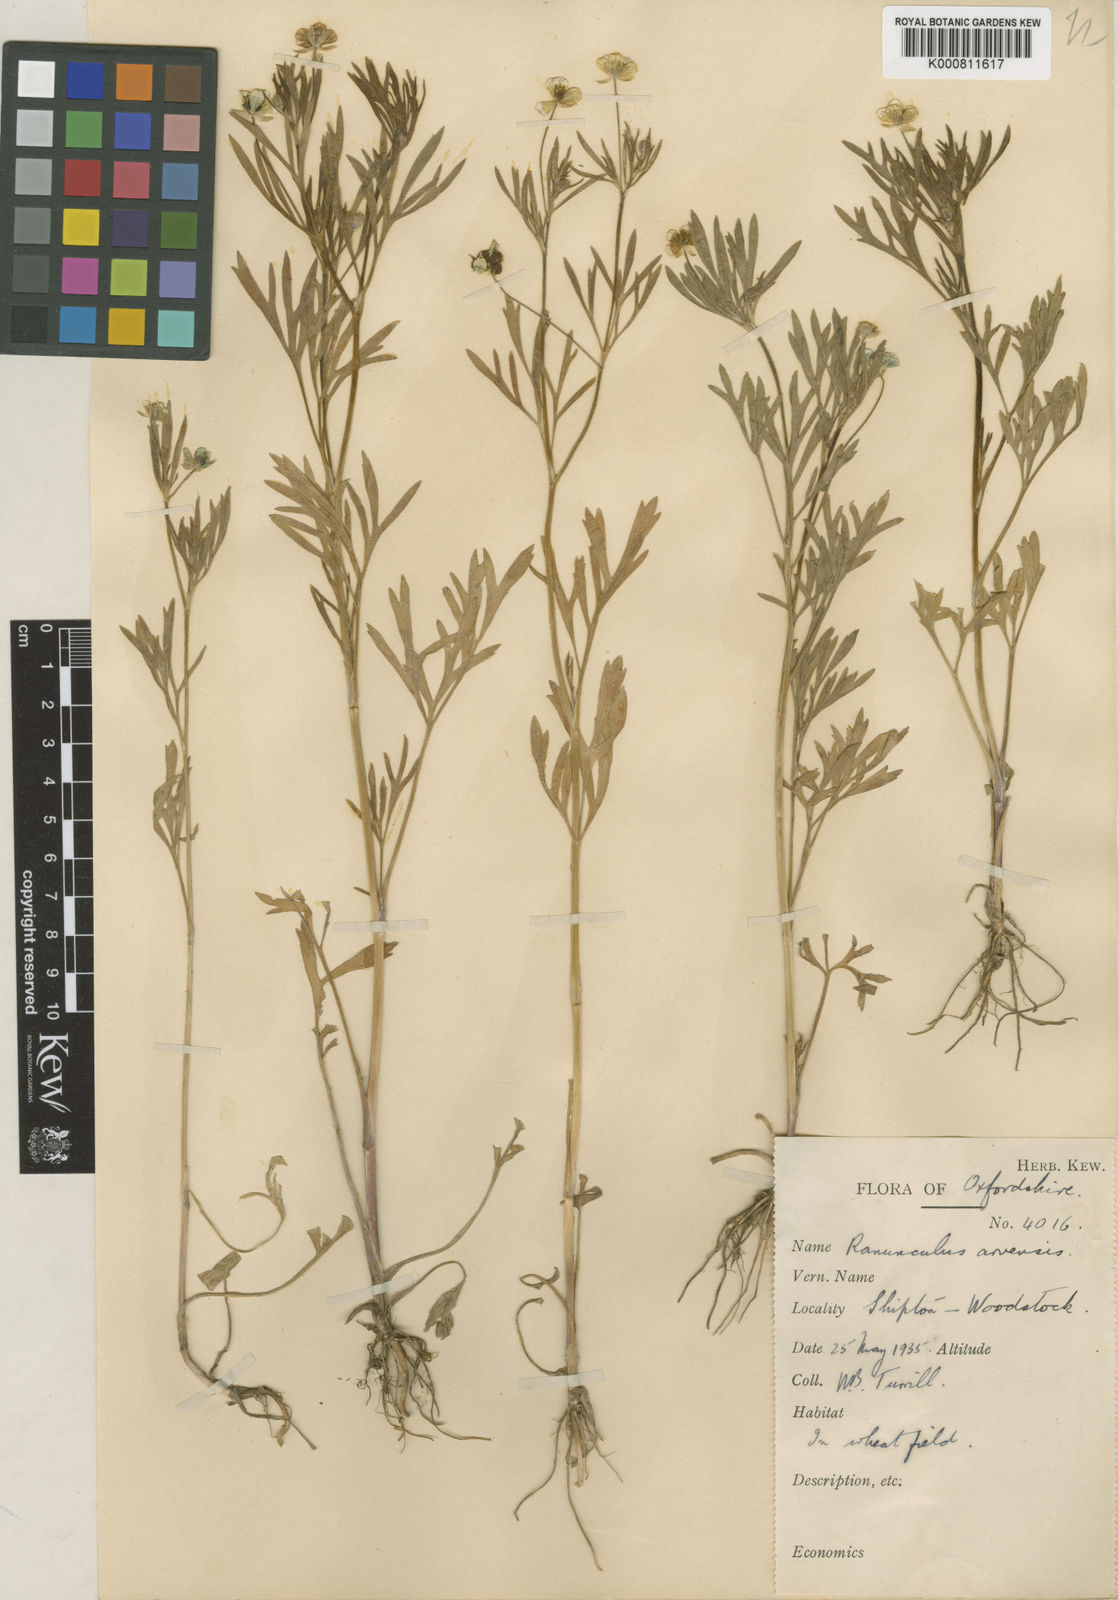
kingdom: Plantae
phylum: Tracheophyta
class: Magnoliopsida
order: Ranunculales
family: Ranunculaceae
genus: Ranunculus
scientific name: Ranunculus arvensis
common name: Corn buttercup
